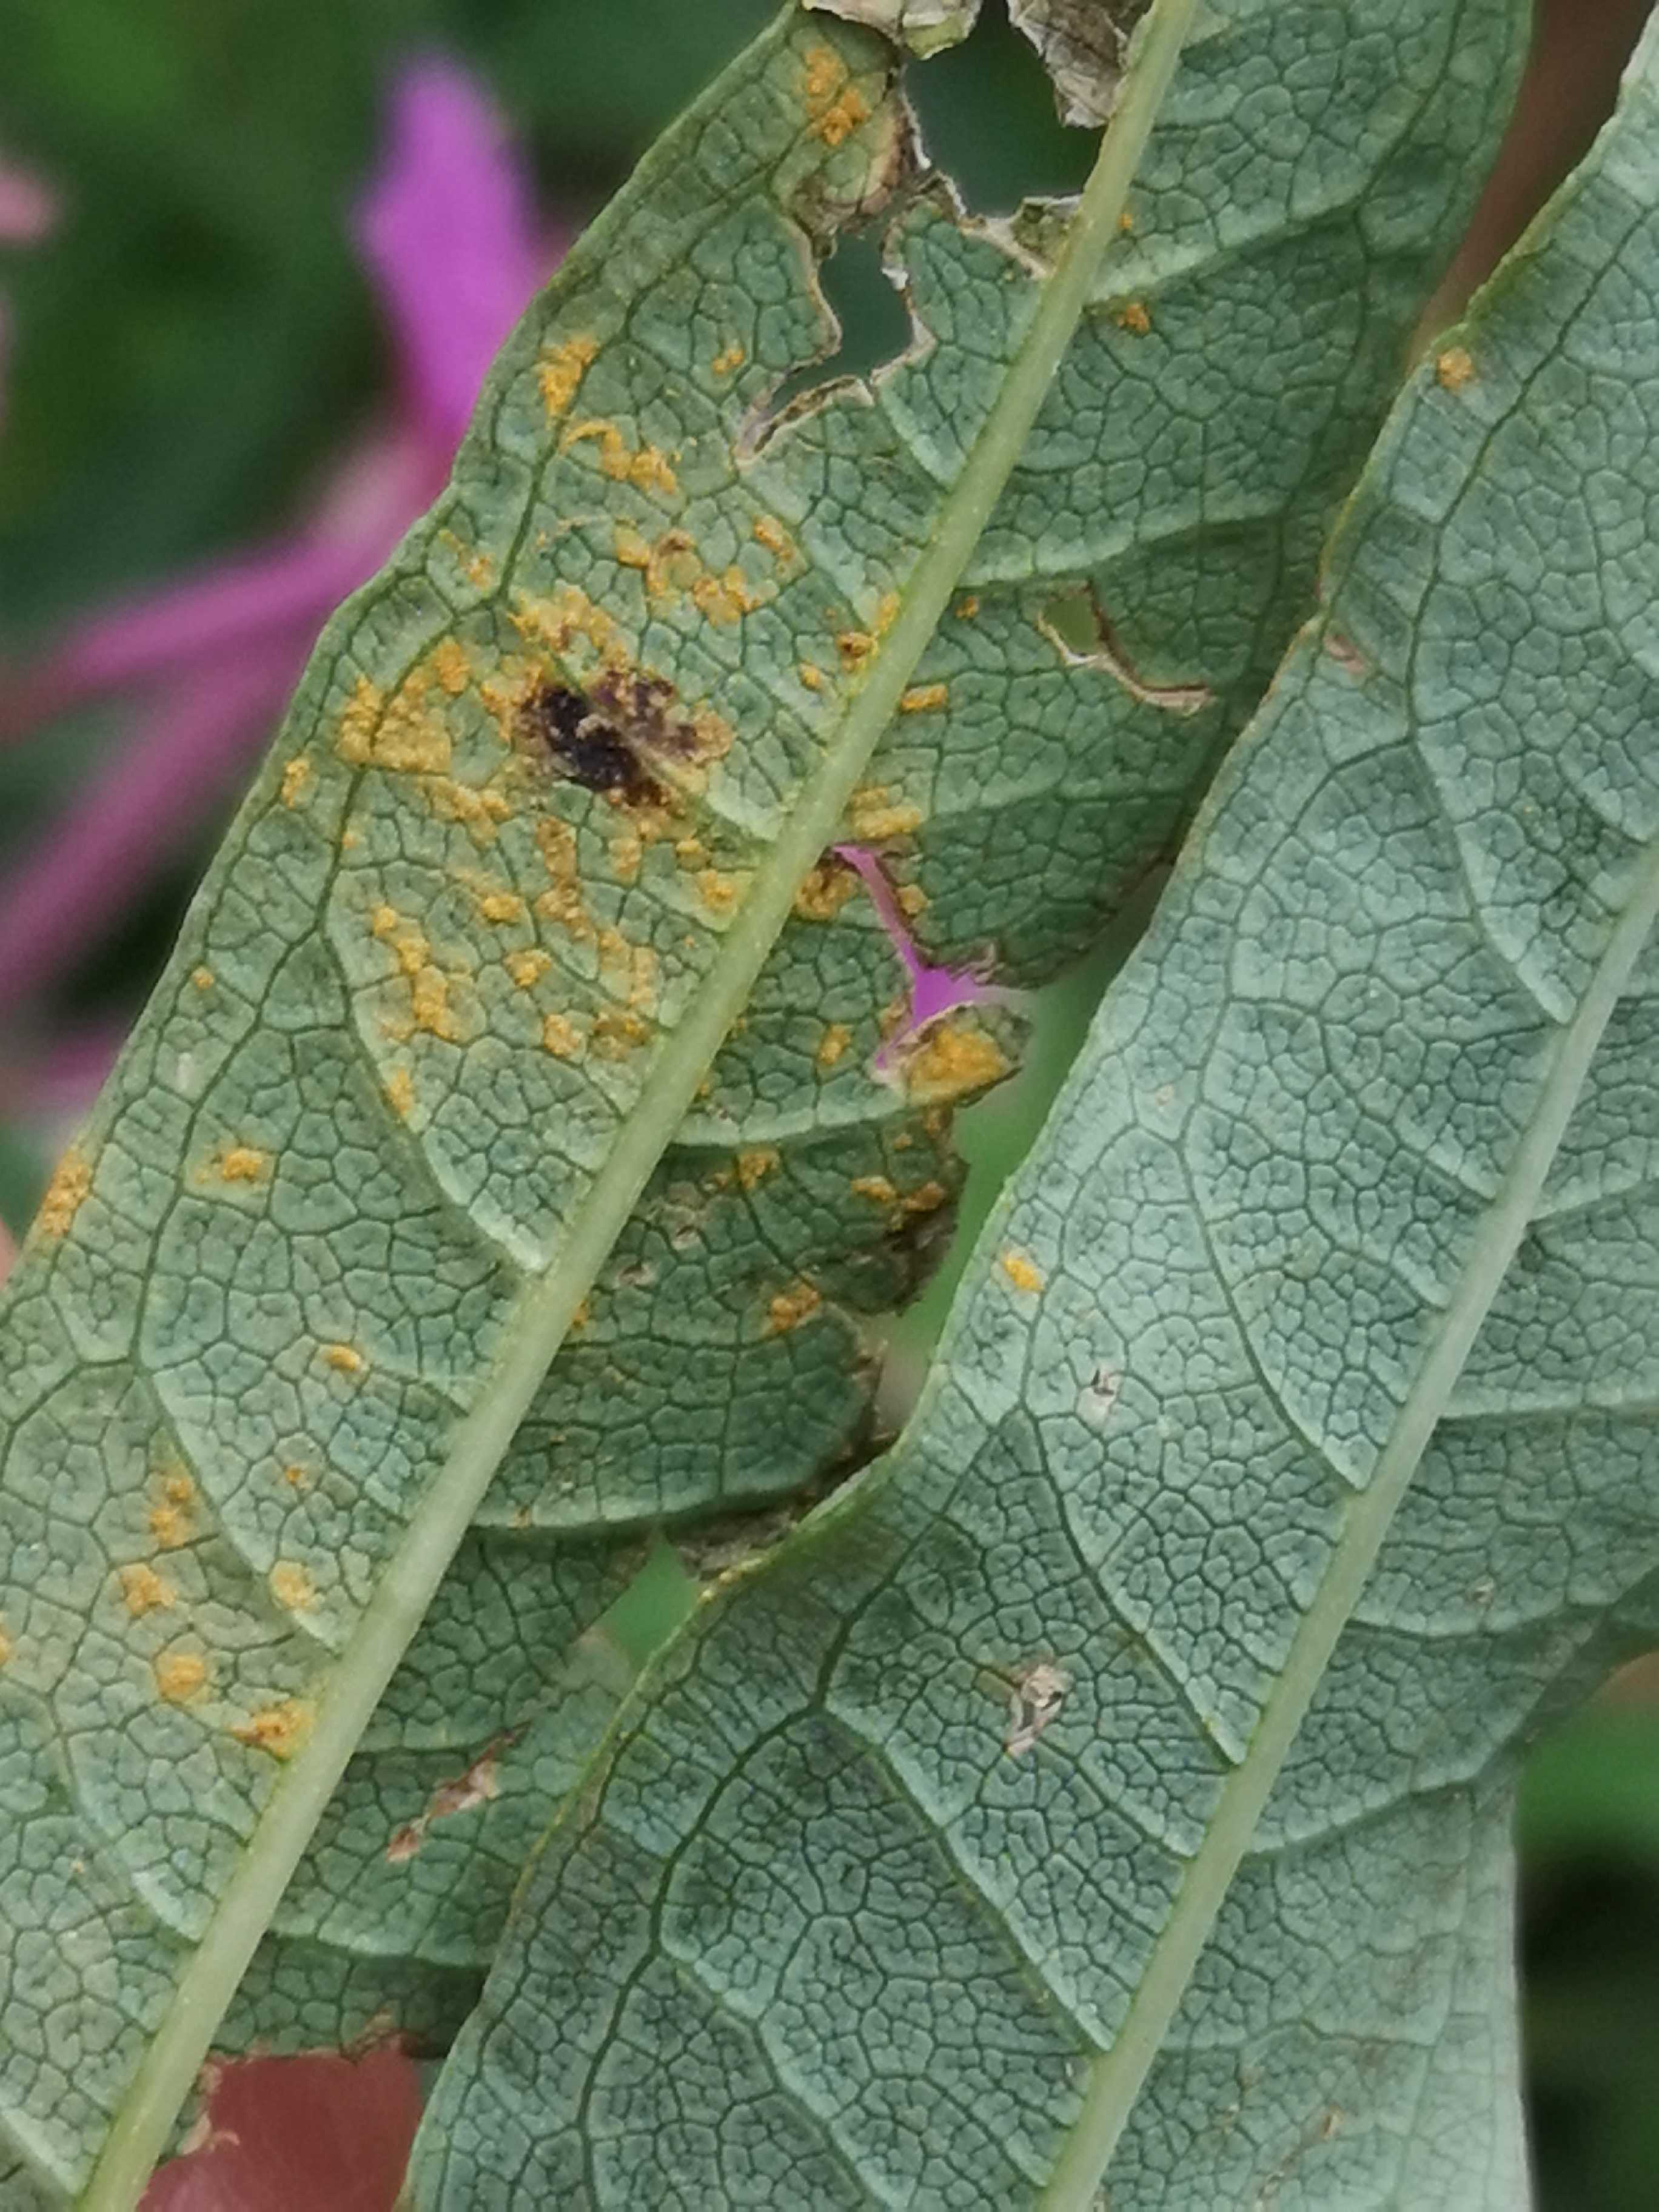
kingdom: Fungi
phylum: Basidiomycota
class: Pucciniomycetes
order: Pucciniales
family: Pucciniastraceae
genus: Pucciniastrum
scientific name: Pucciniastrum epilobii
